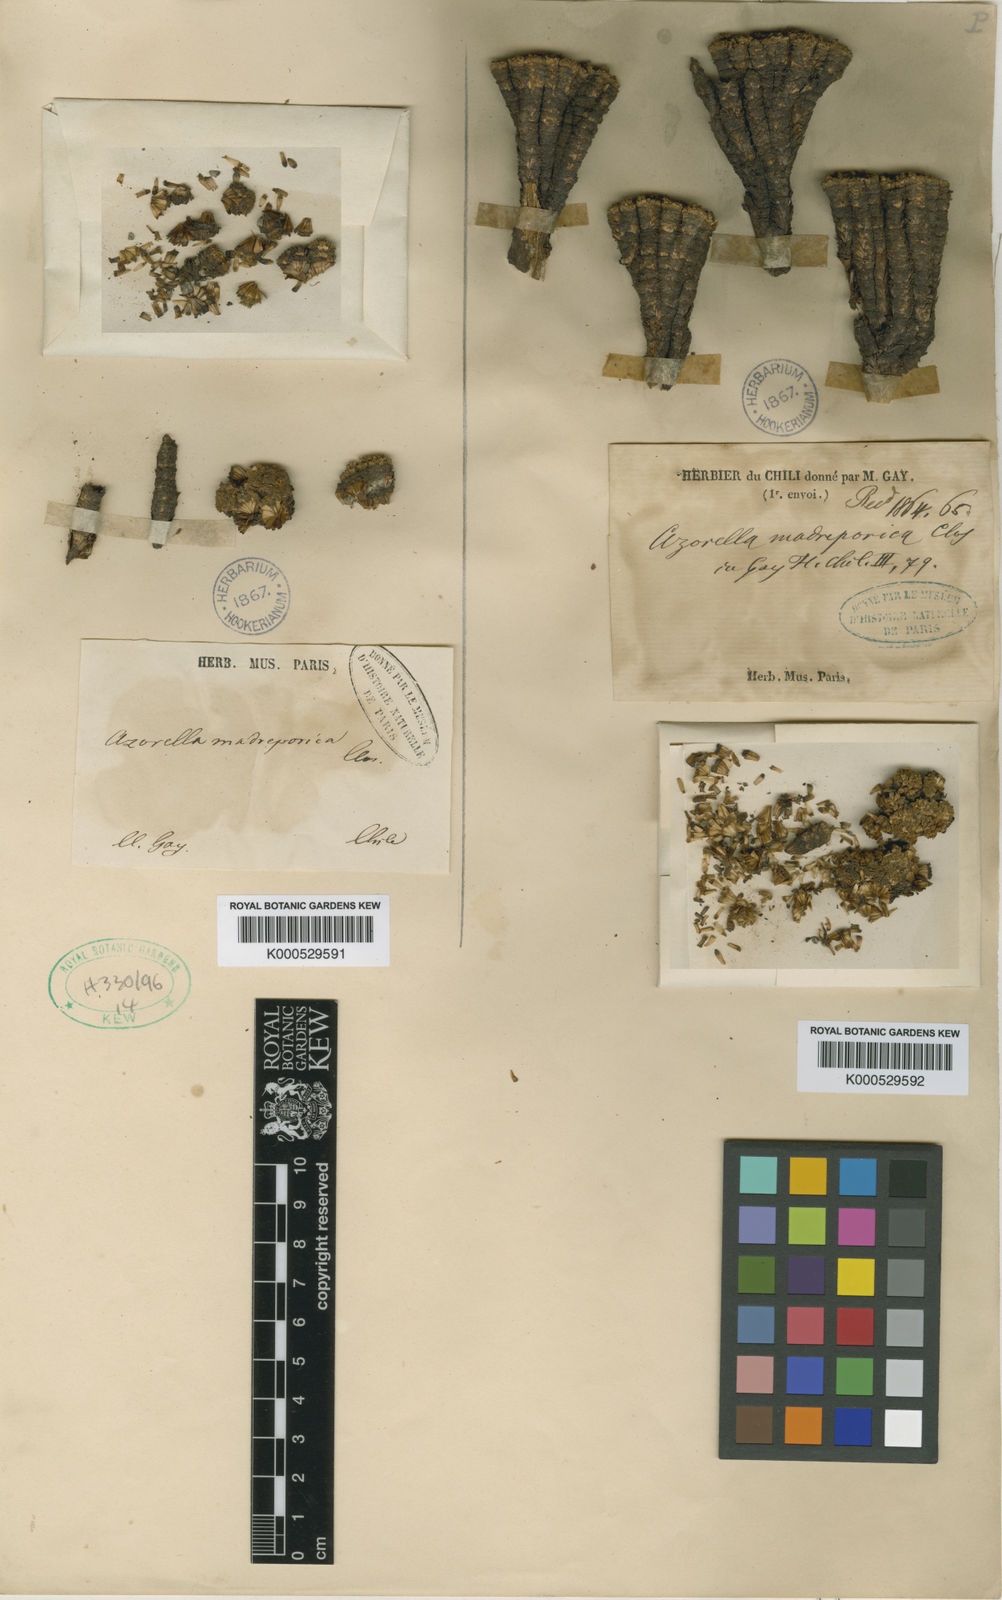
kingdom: Plantae
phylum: Tracheophyta
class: Magnoliopsida
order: Apiales
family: Apiaceae
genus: Azorella
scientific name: Azorella madreporica
